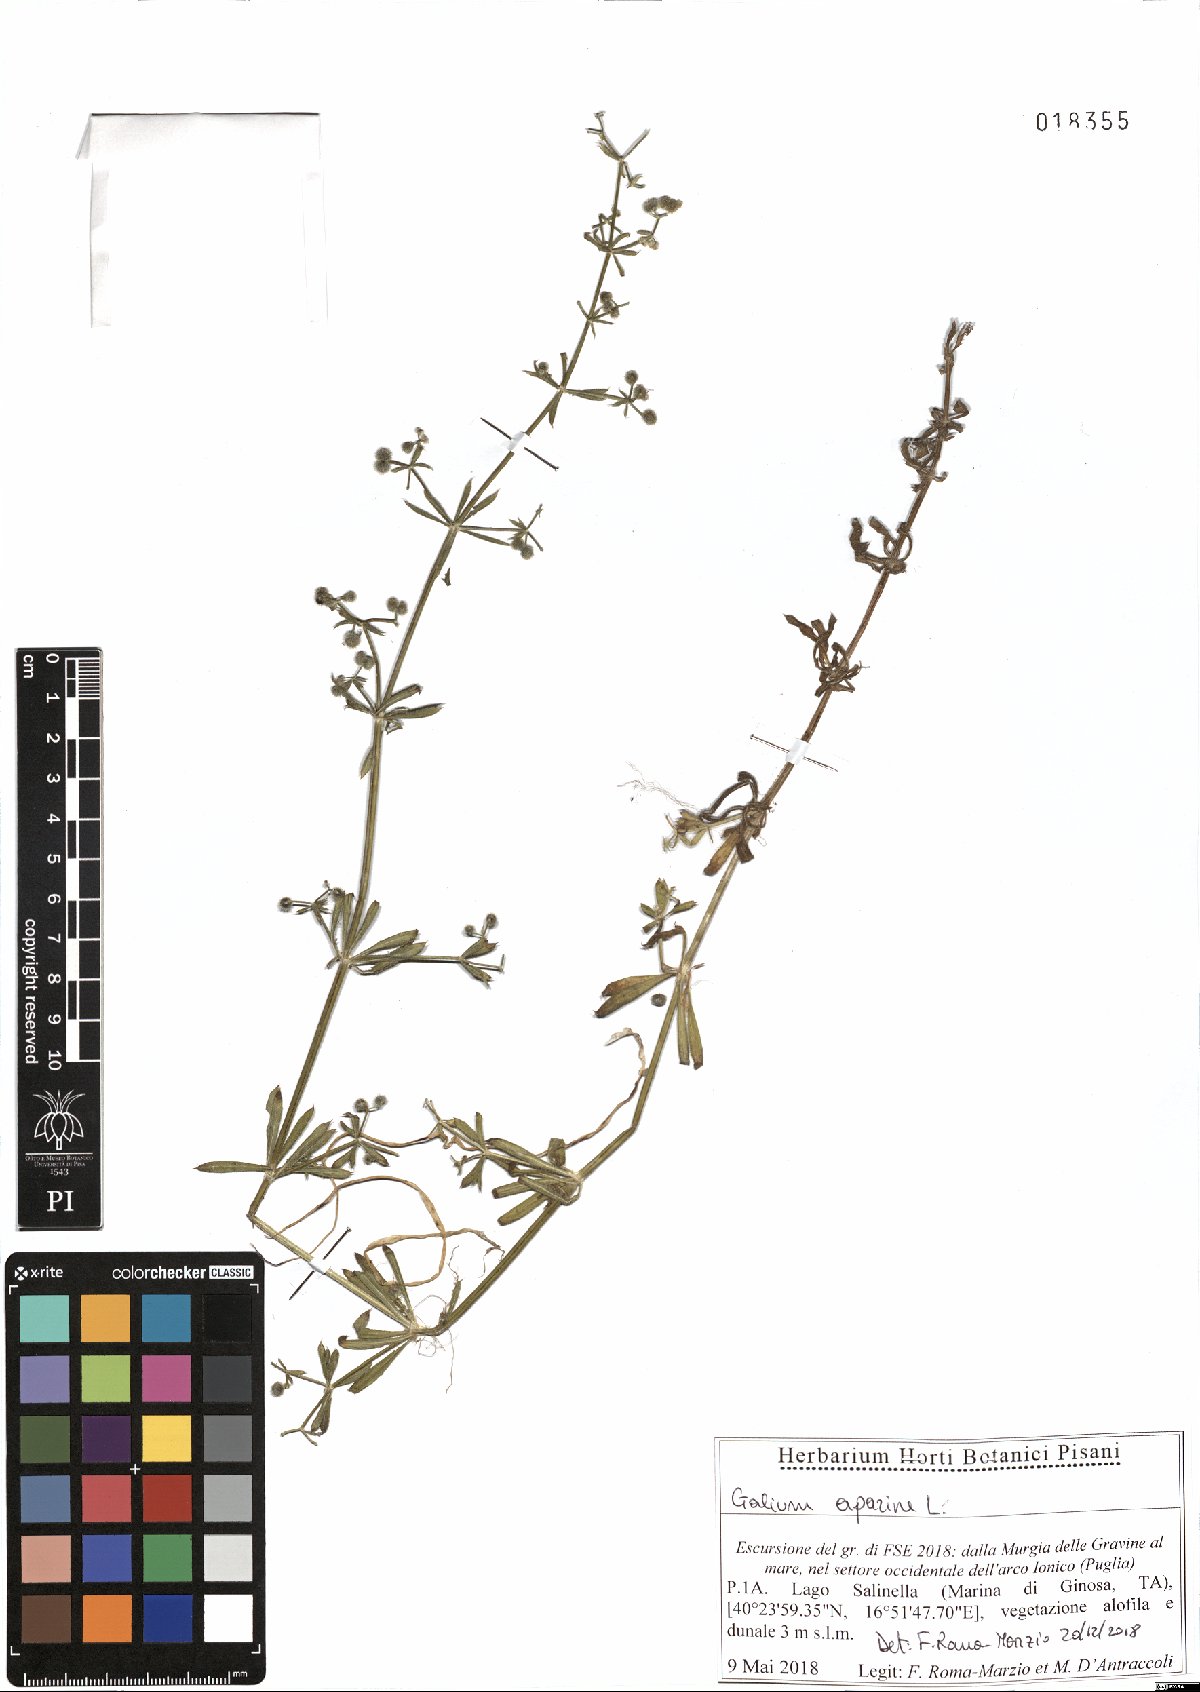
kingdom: Plantae
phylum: Tracheophyta
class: Magnoliopsida
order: Gentianales
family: Rubiaceae
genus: Galium
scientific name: Galium aparine
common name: Cleavers
